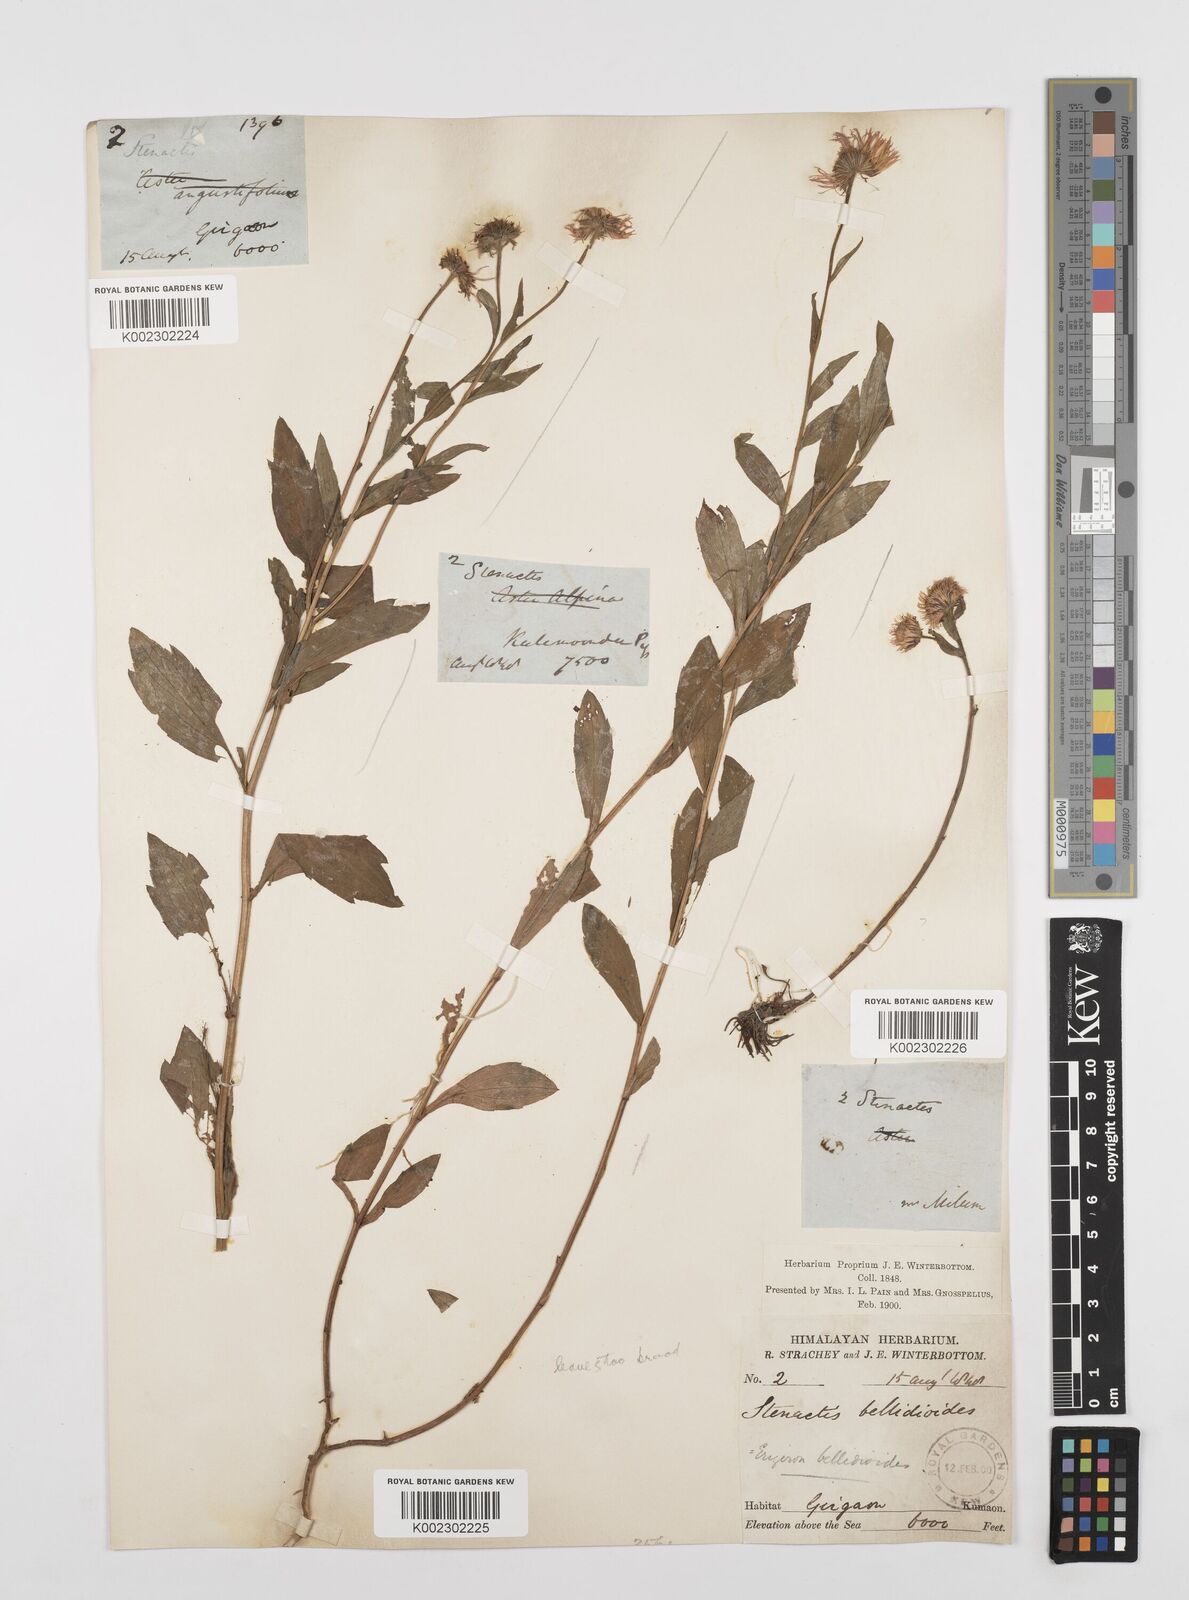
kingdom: Plantae
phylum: Tracheophyta
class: Magnoliopsida
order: Asterales
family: Asteraceae
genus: Erigeron
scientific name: Erigeron acris
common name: Blue fleabane
